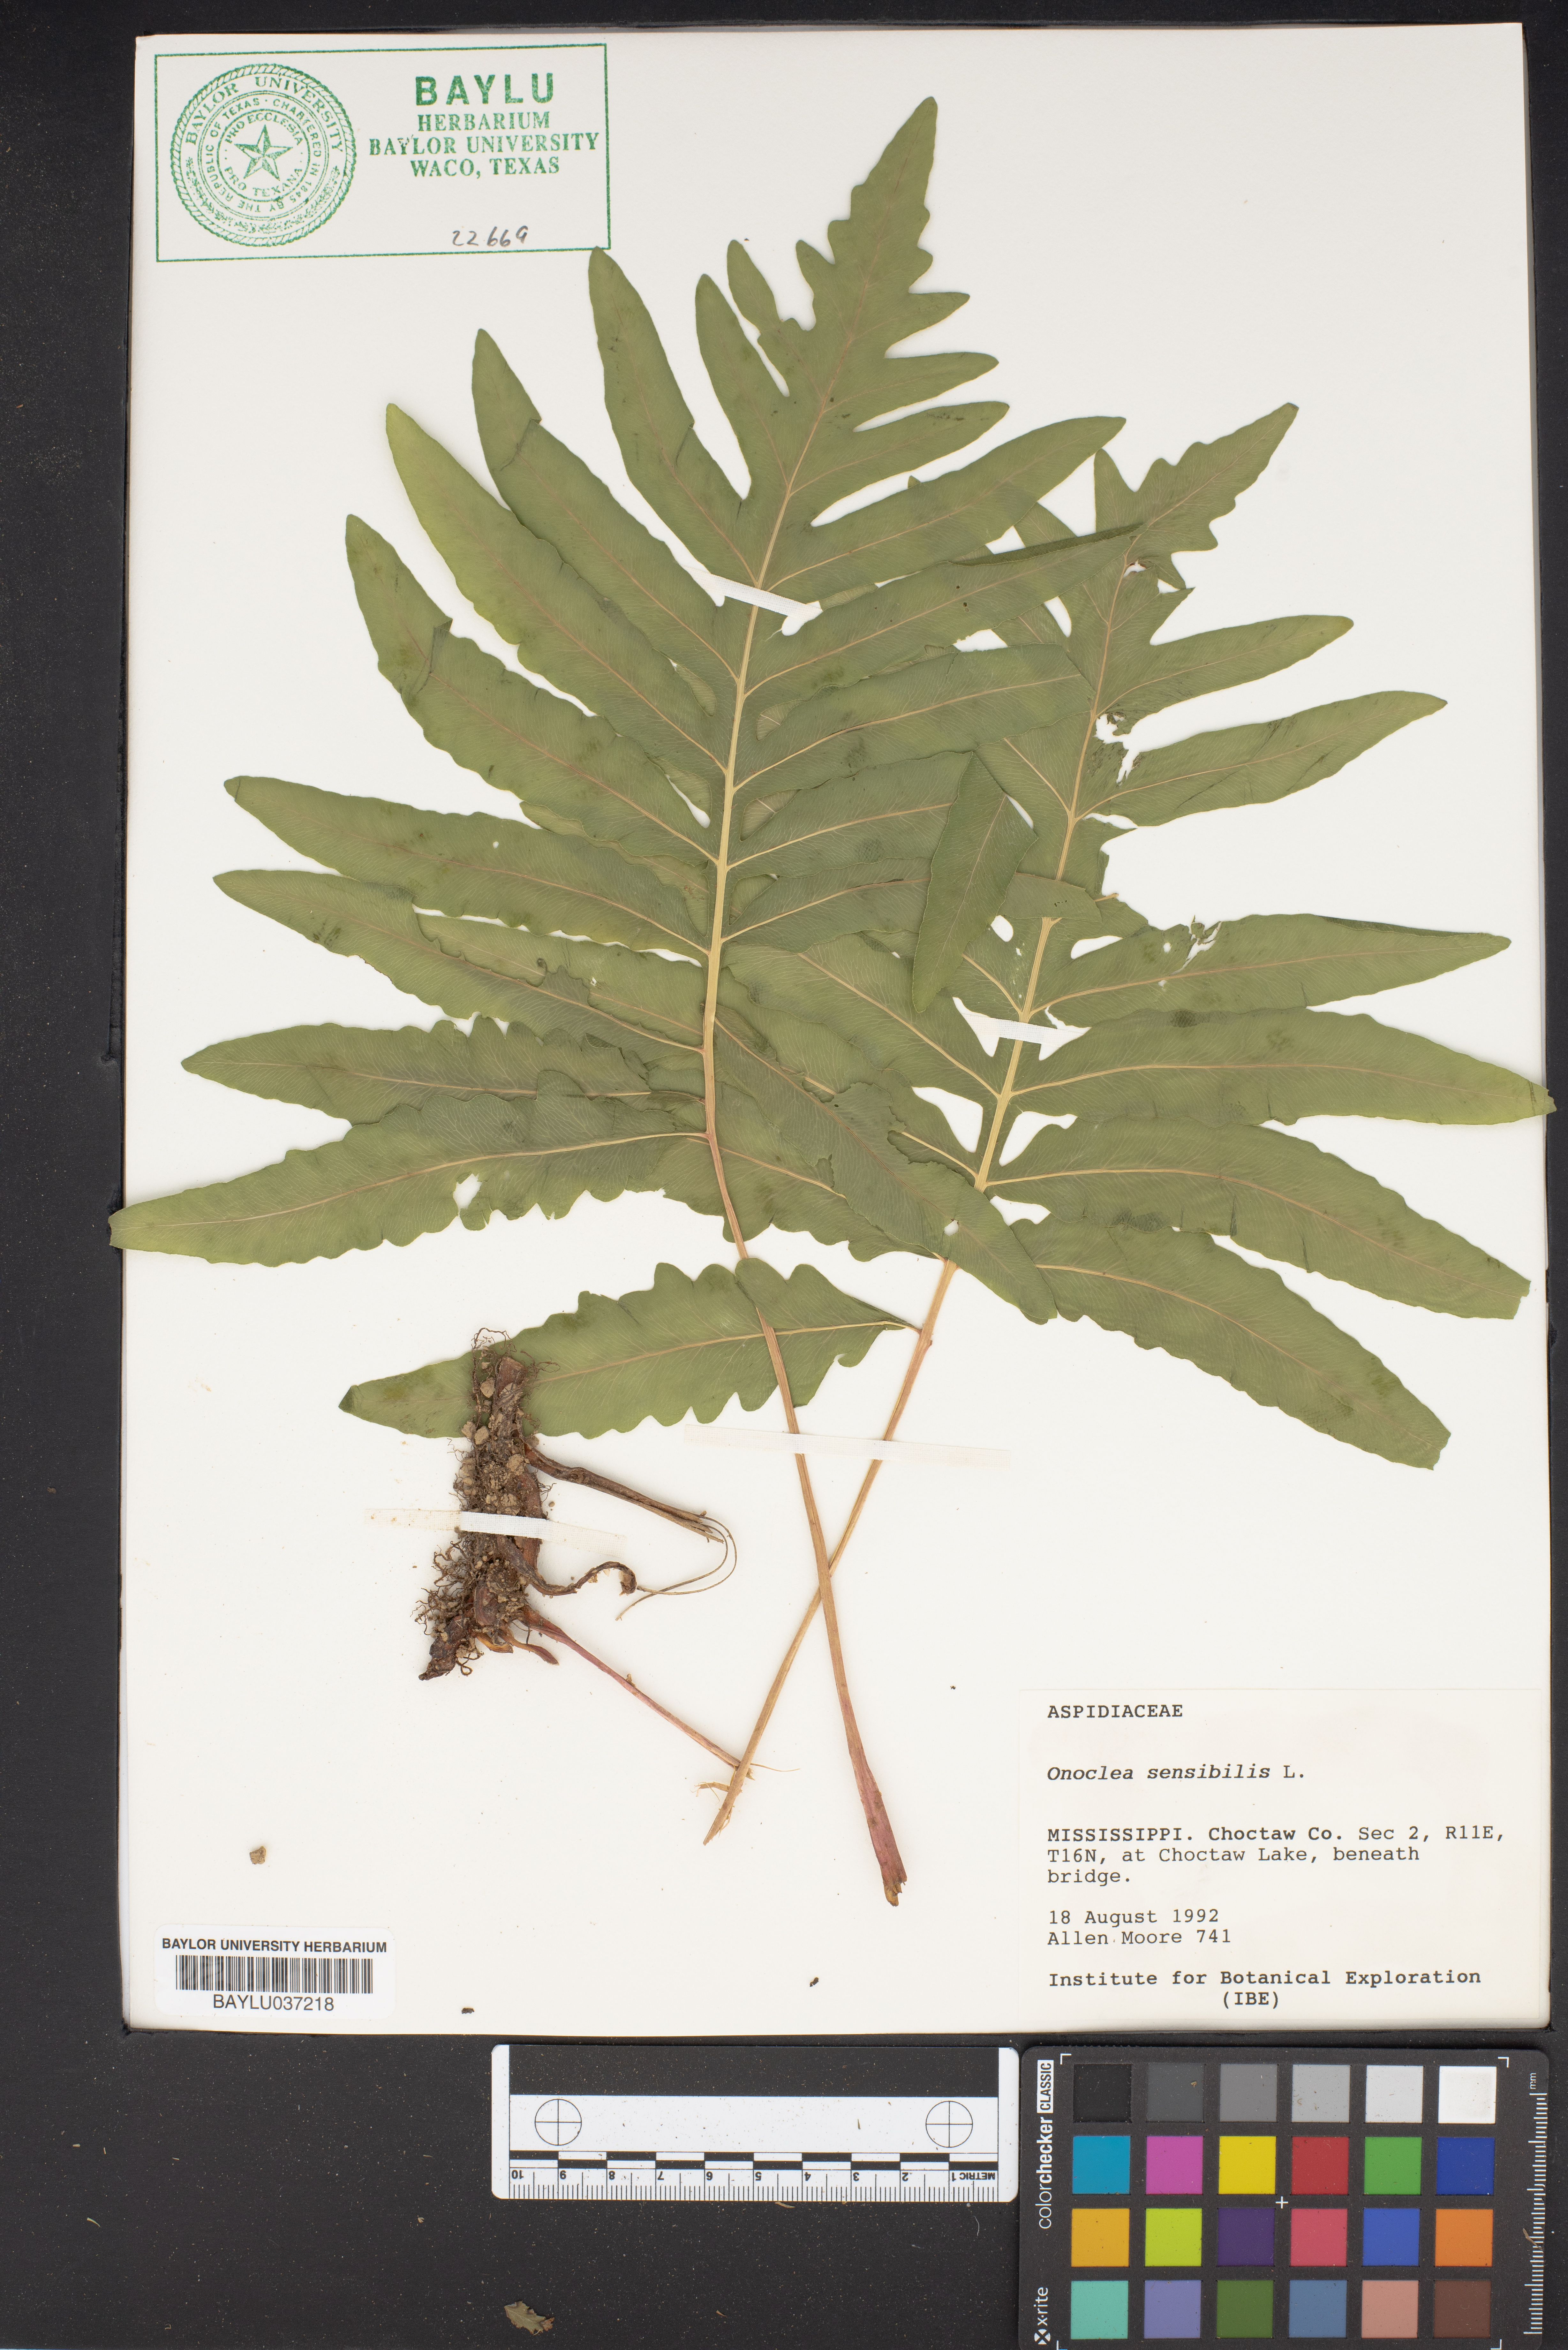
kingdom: Plantae
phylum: Tracheophyta
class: Polypodiopsida
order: Polypodiales
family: Onocleaceae
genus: Onoclea
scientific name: Onoclea sensibilis
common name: Sensitive fern
